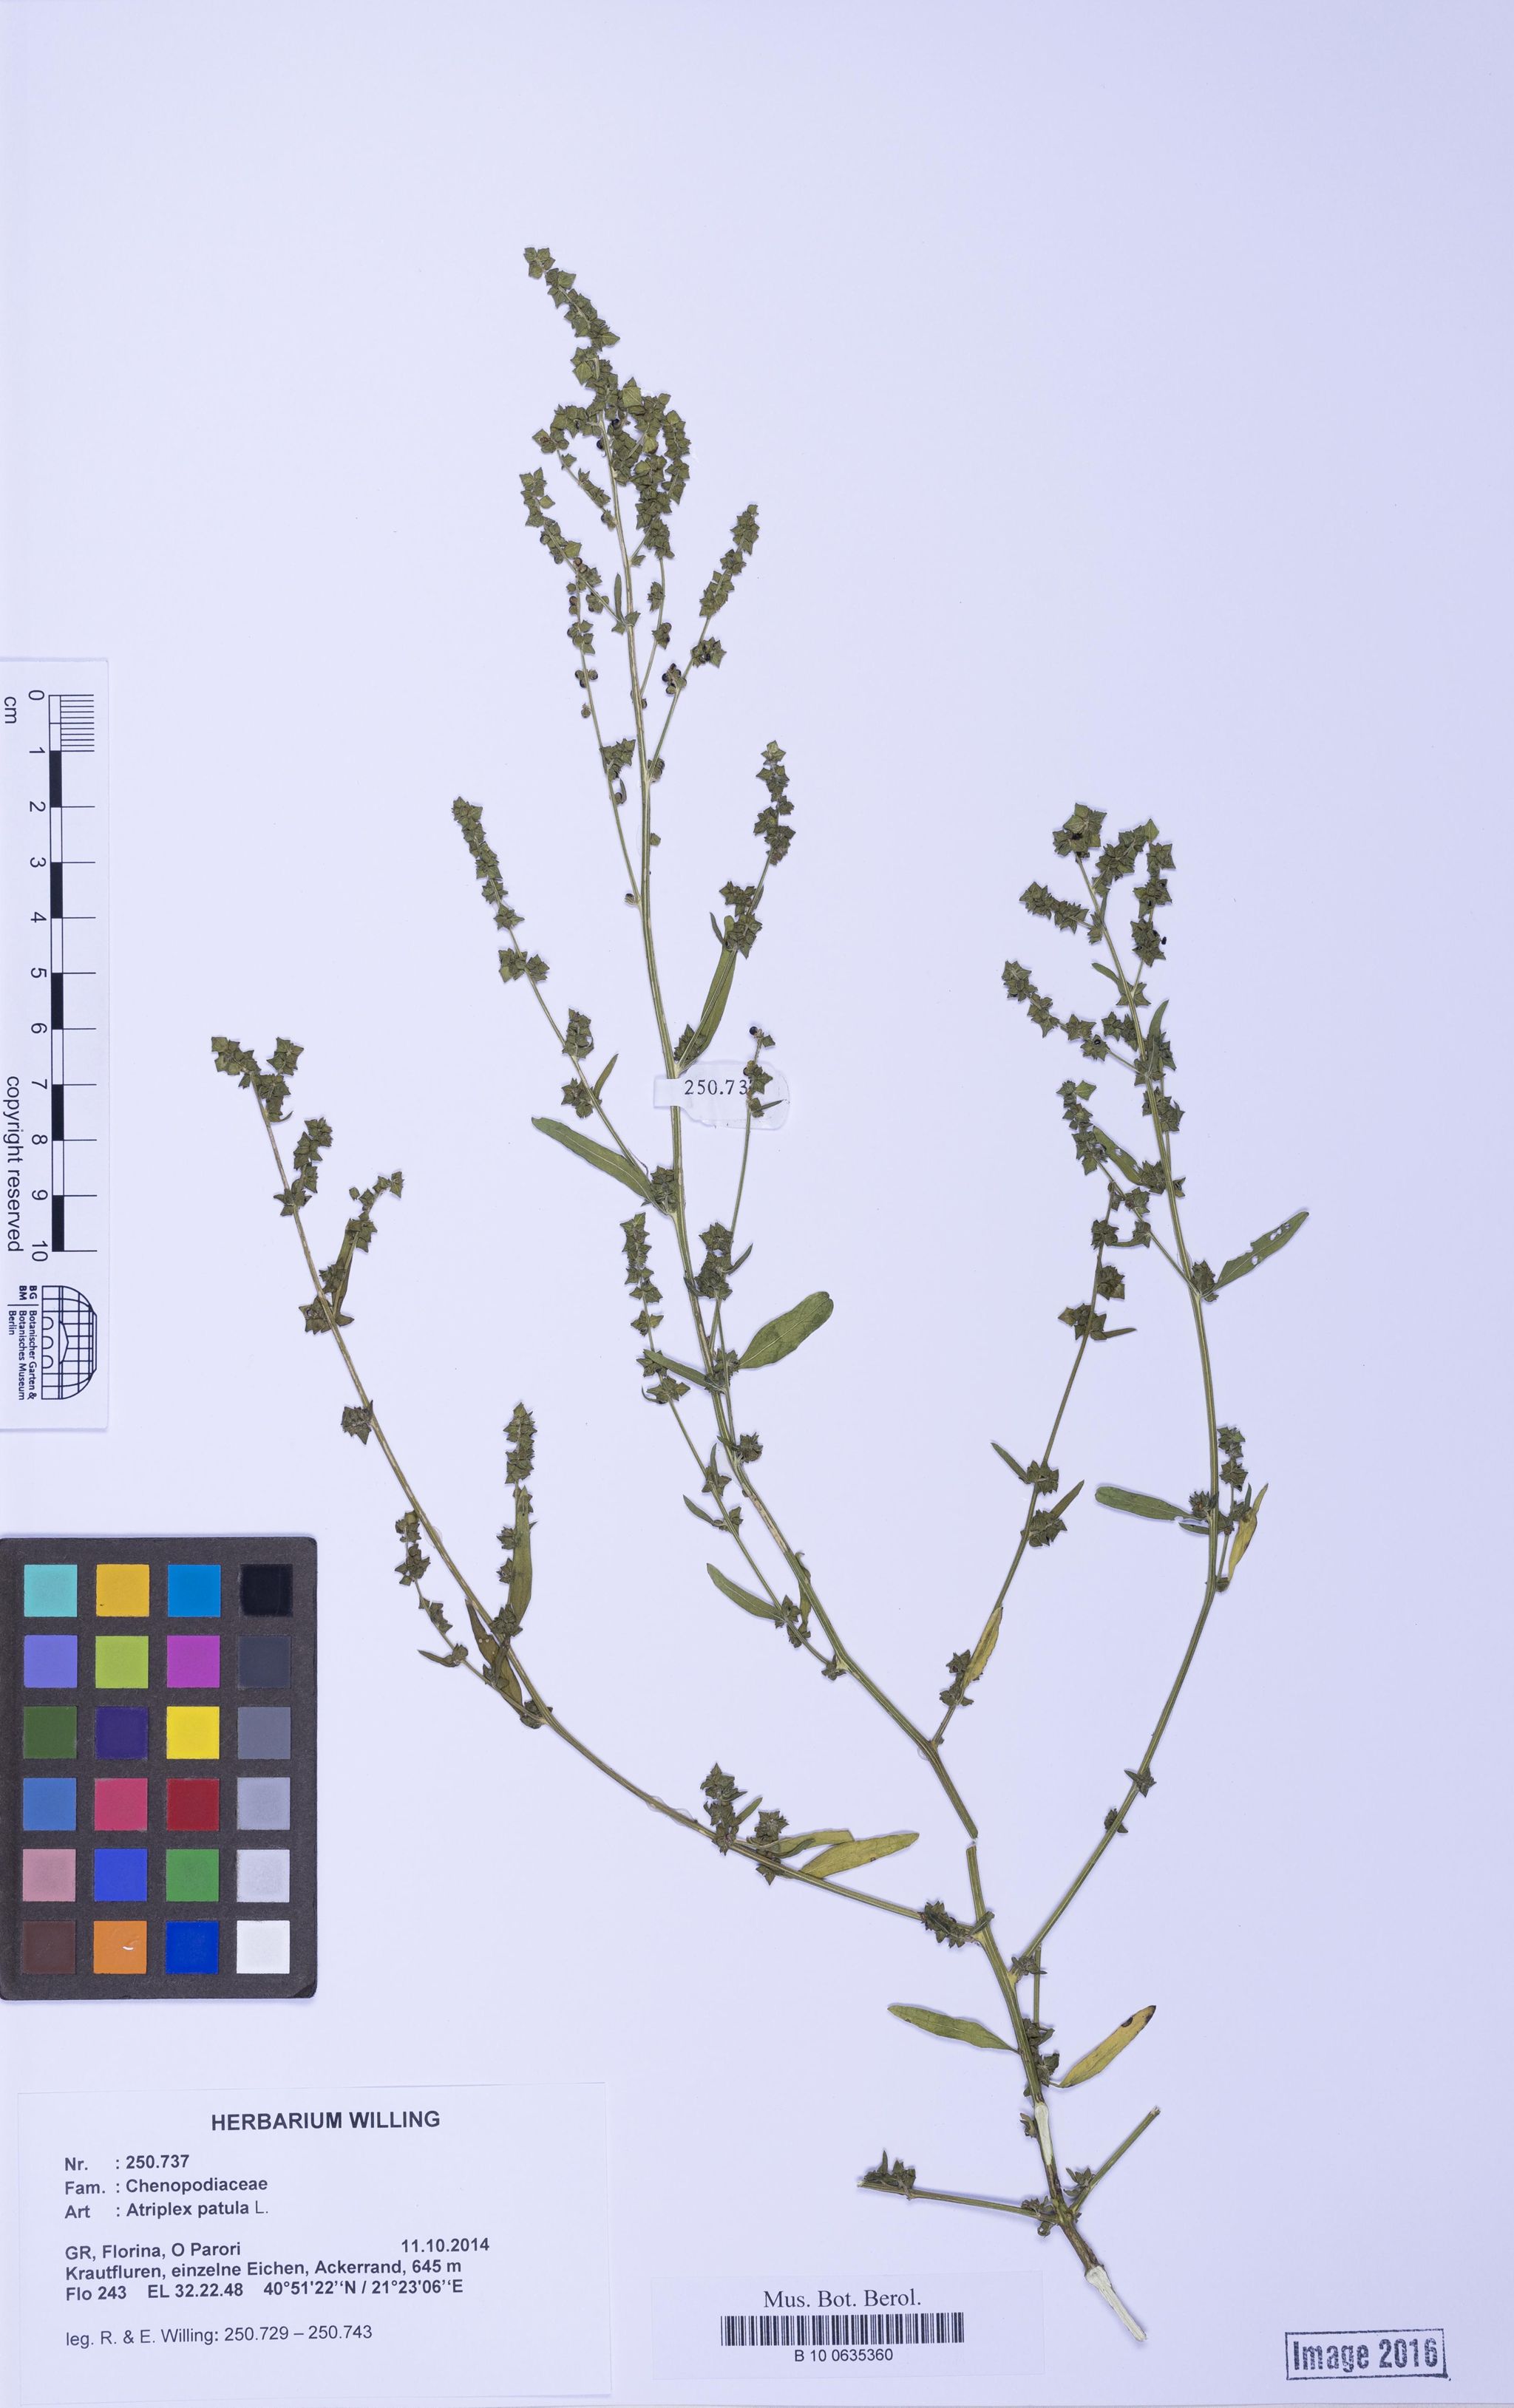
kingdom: Plantae
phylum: Tracheophyta
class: Magnoliopsida
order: Caryophyllales
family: Amaranthaceae
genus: Atriplex
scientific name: Atriplex patula
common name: Common orache
